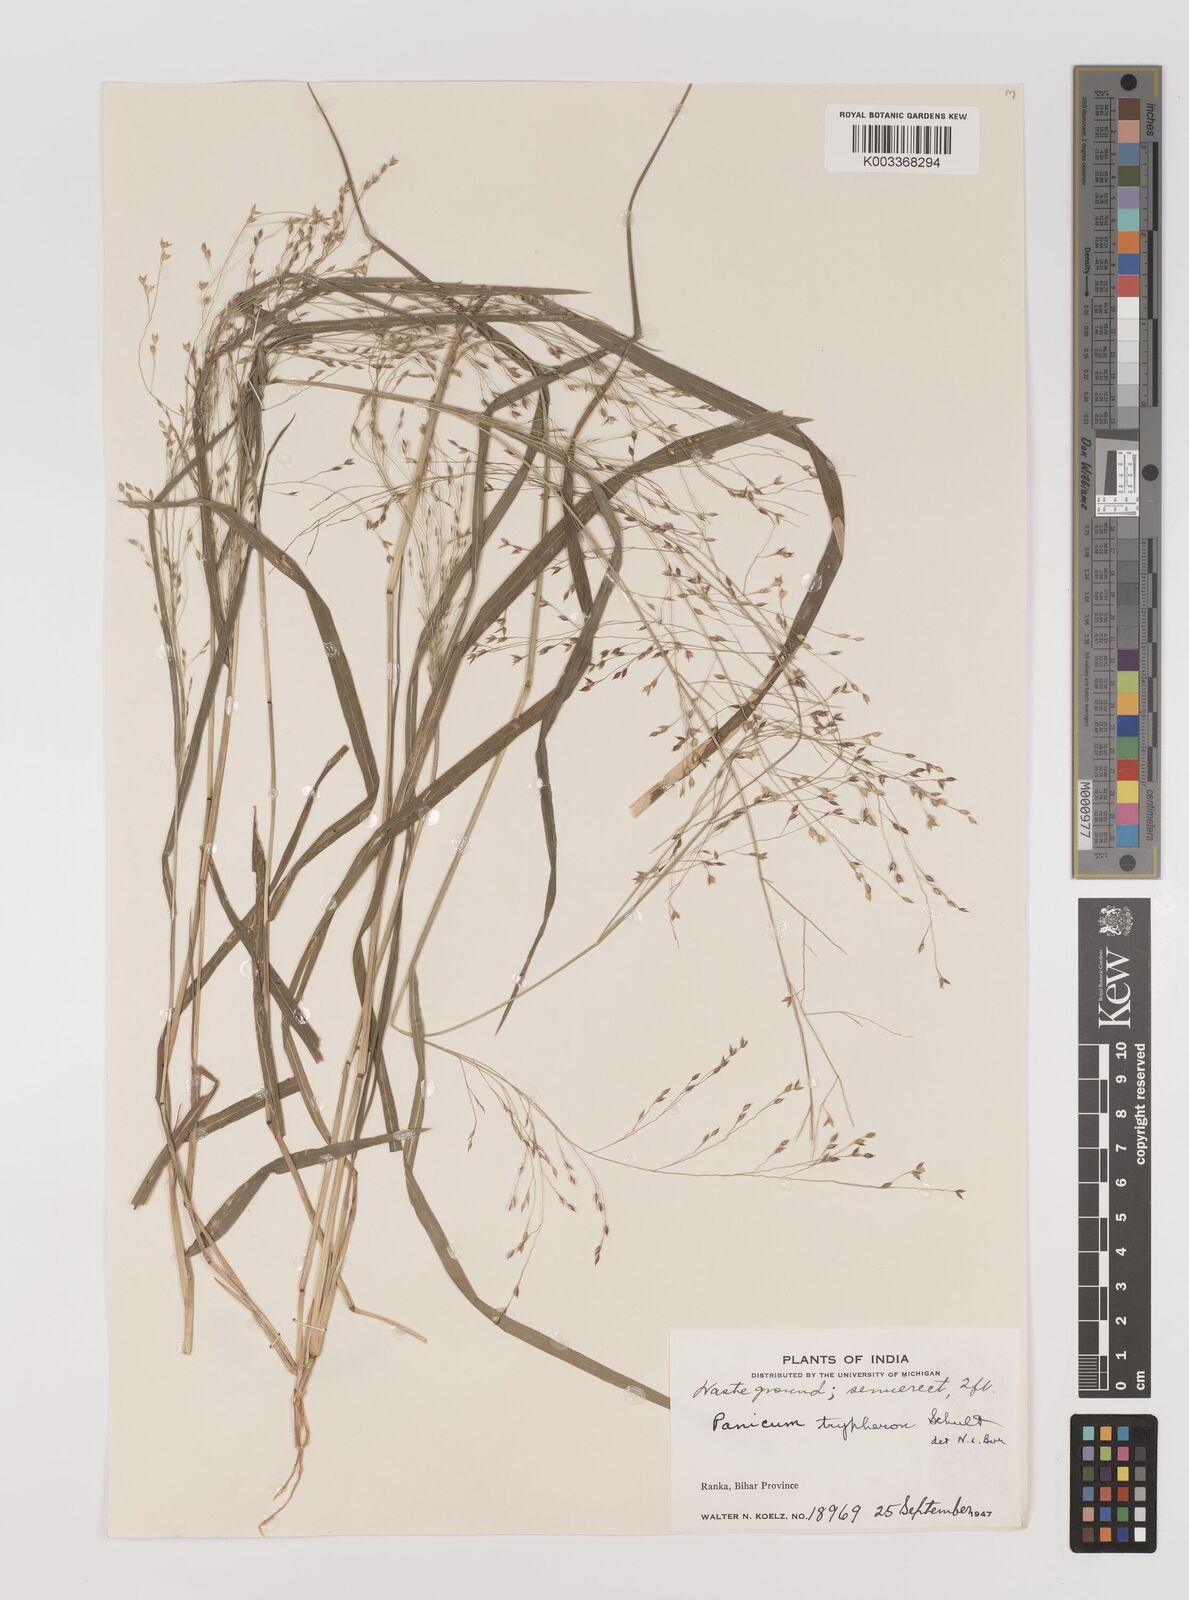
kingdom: Plantae
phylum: Tracheophyta
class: Liliopsida
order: Poales
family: Poaceae
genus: Panicum
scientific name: Panicum notatum
